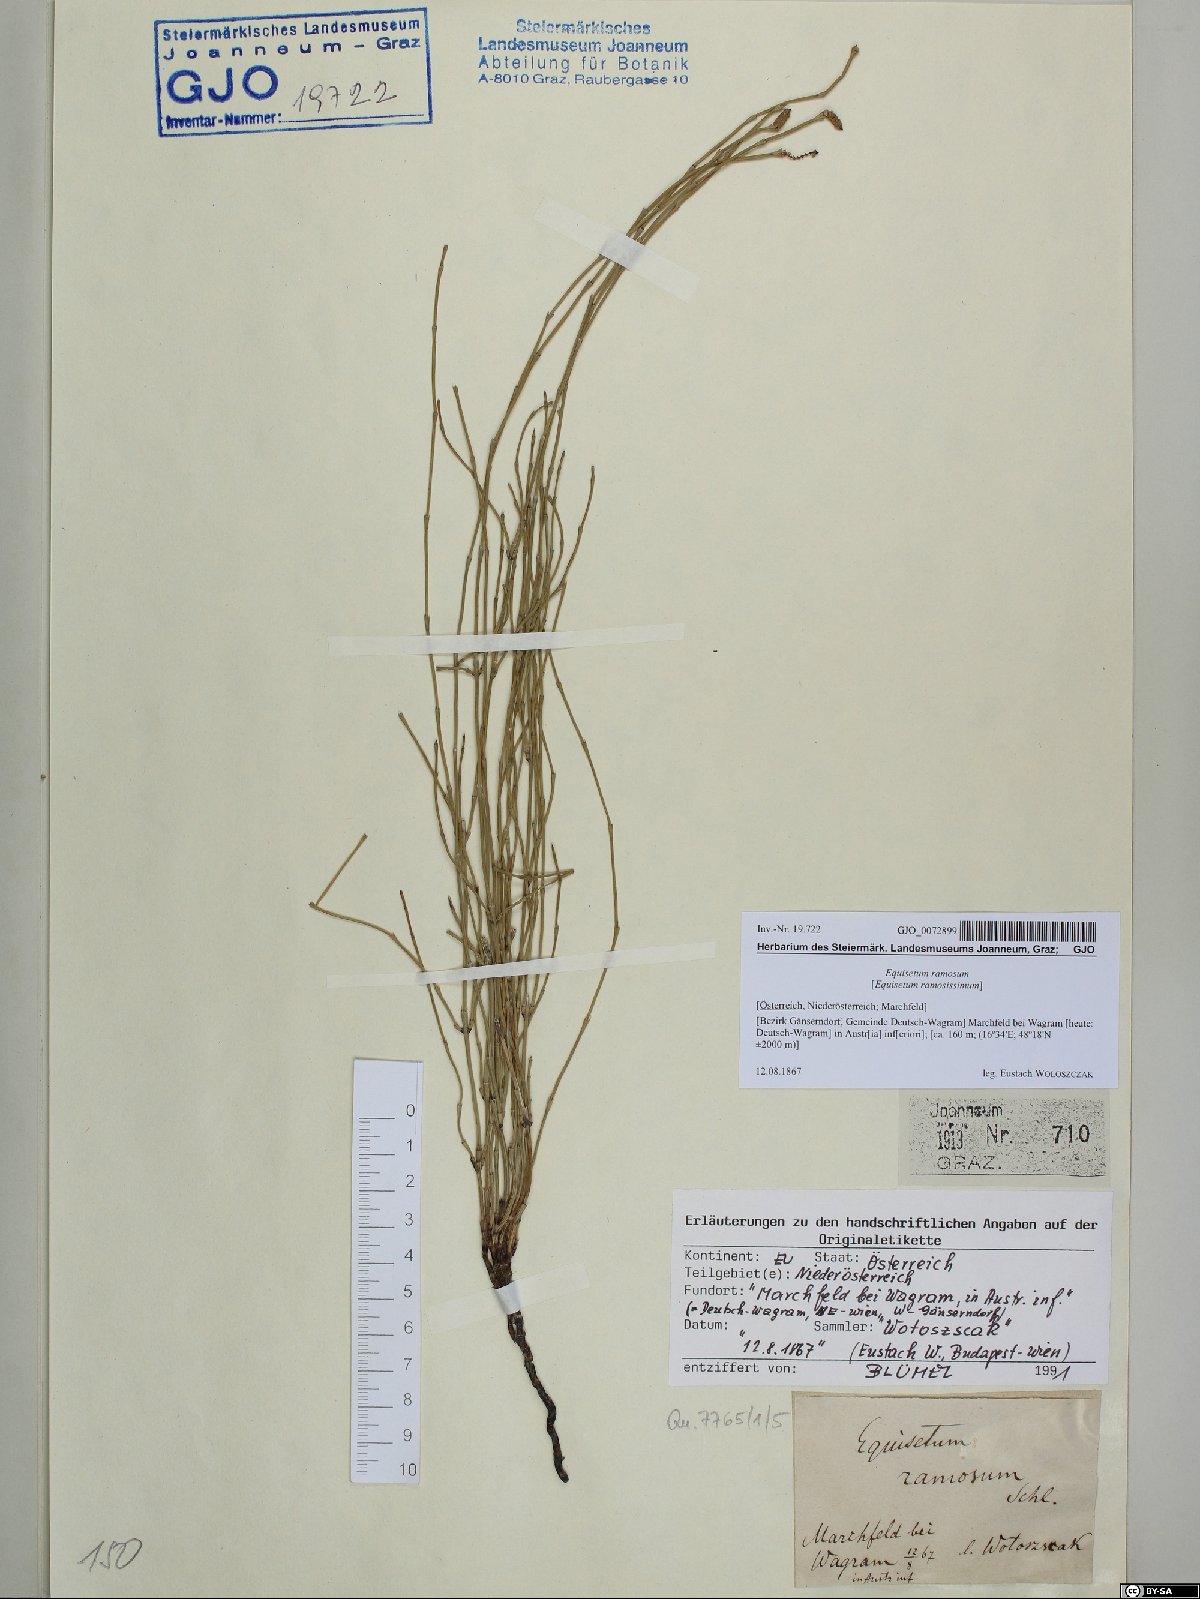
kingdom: Plantae
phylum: Tracheophyta
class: Polypodiopsida
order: Equisetales
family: Equisetaceae
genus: Equisetum
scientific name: Equisetum ramosissimum
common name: Branched horsetail
